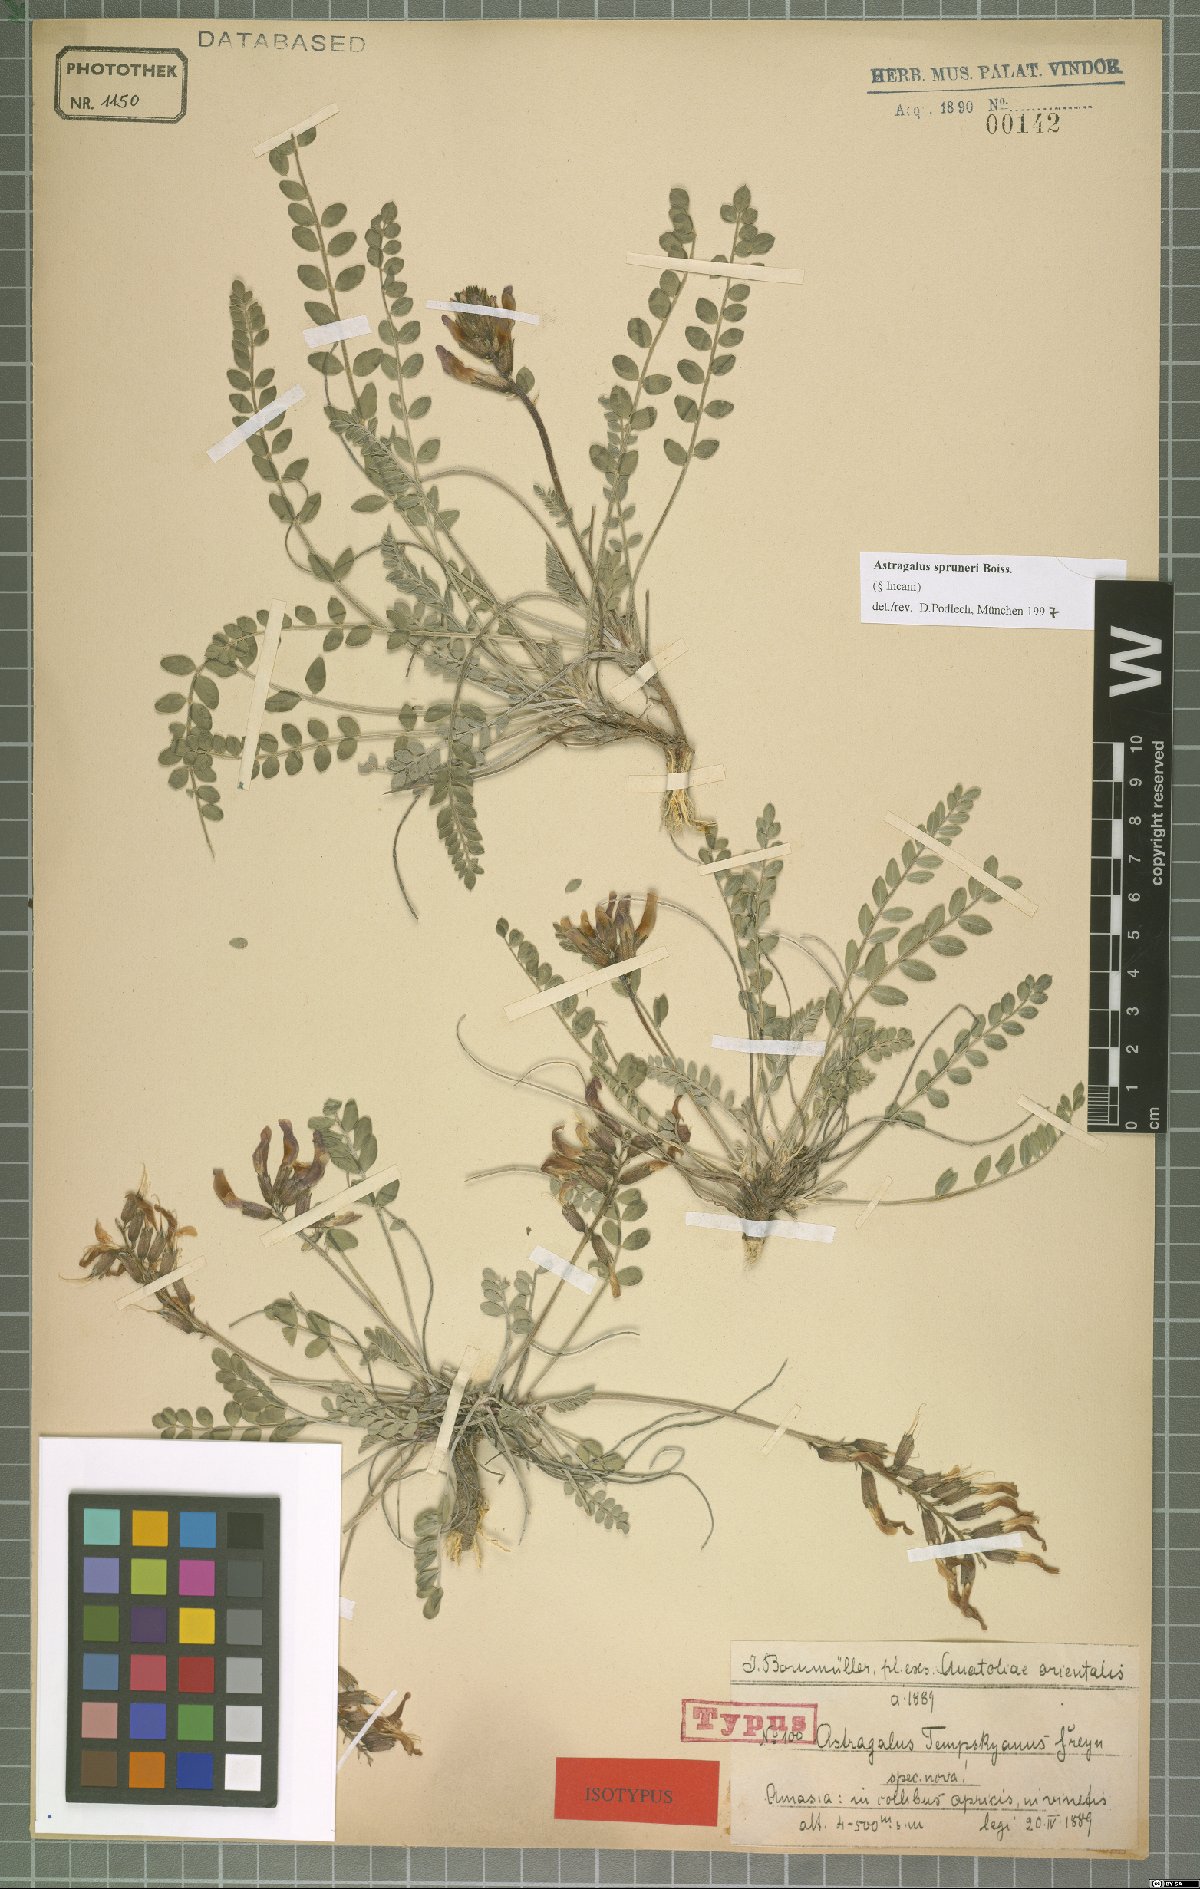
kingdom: Plantae
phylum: Tracheophyta
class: Magnoliopsida
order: Fabales
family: Fabaceae
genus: Astragalus
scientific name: Astragalus spruneri
